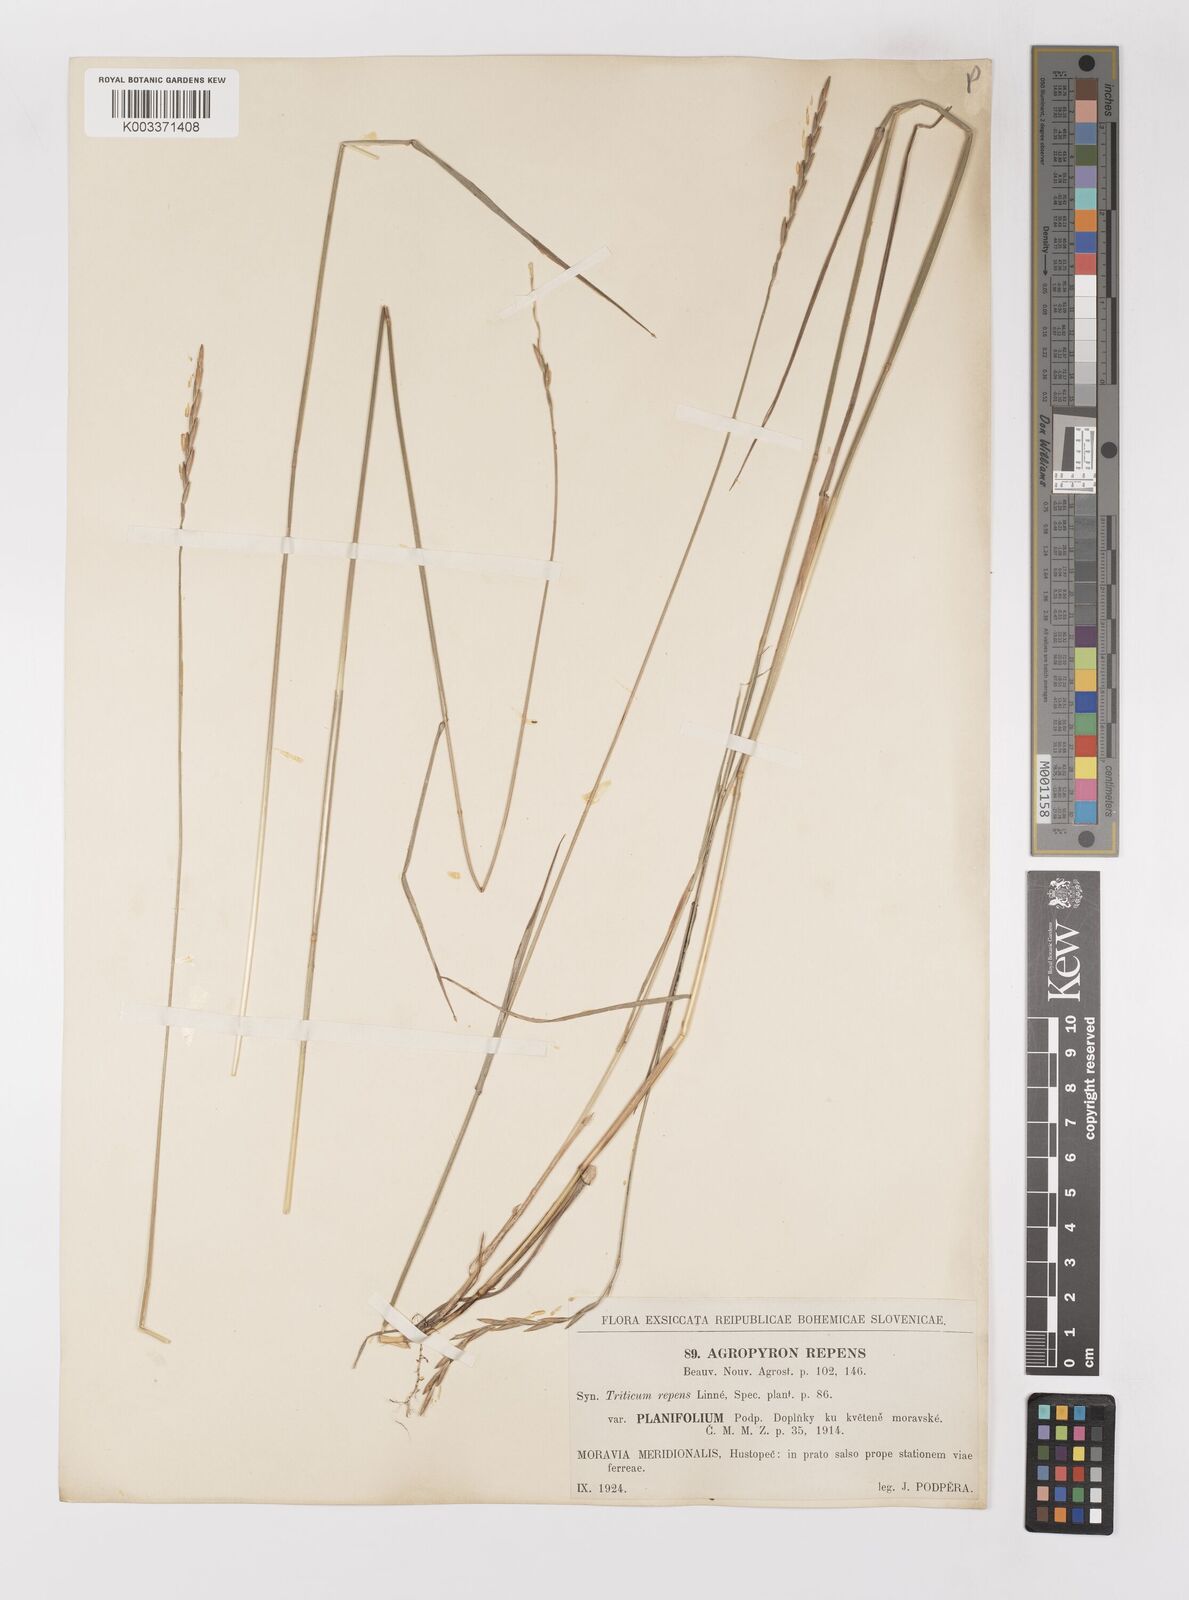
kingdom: Plantae
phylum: Tracheophyta
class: Liliopsida
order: Poales
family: Poaceae
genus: Elymus
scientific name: Elymus repens
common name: Quackgrass
